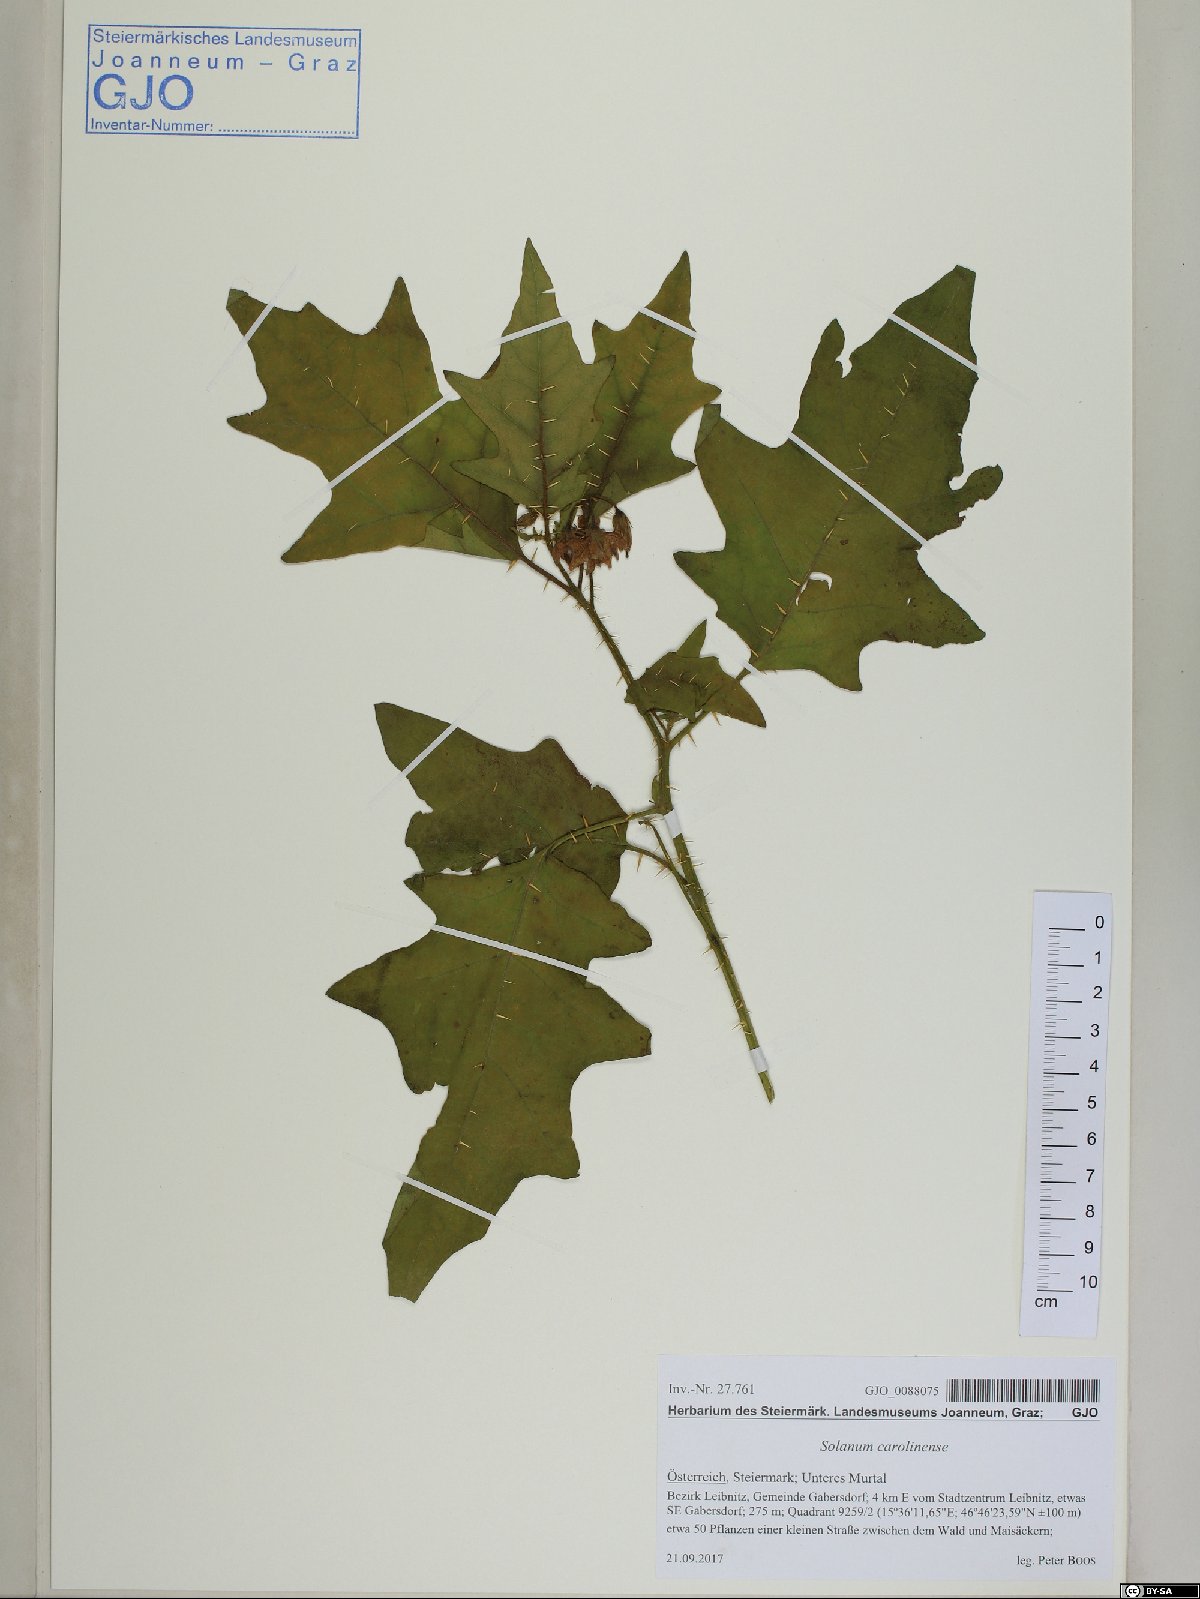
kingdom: Plantae
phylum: Tracheophyta
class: Magnoliopsida
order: Solanales
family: Solanaceae
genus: Solanum
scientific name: Solanum carolinense
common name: Horse-nettle
